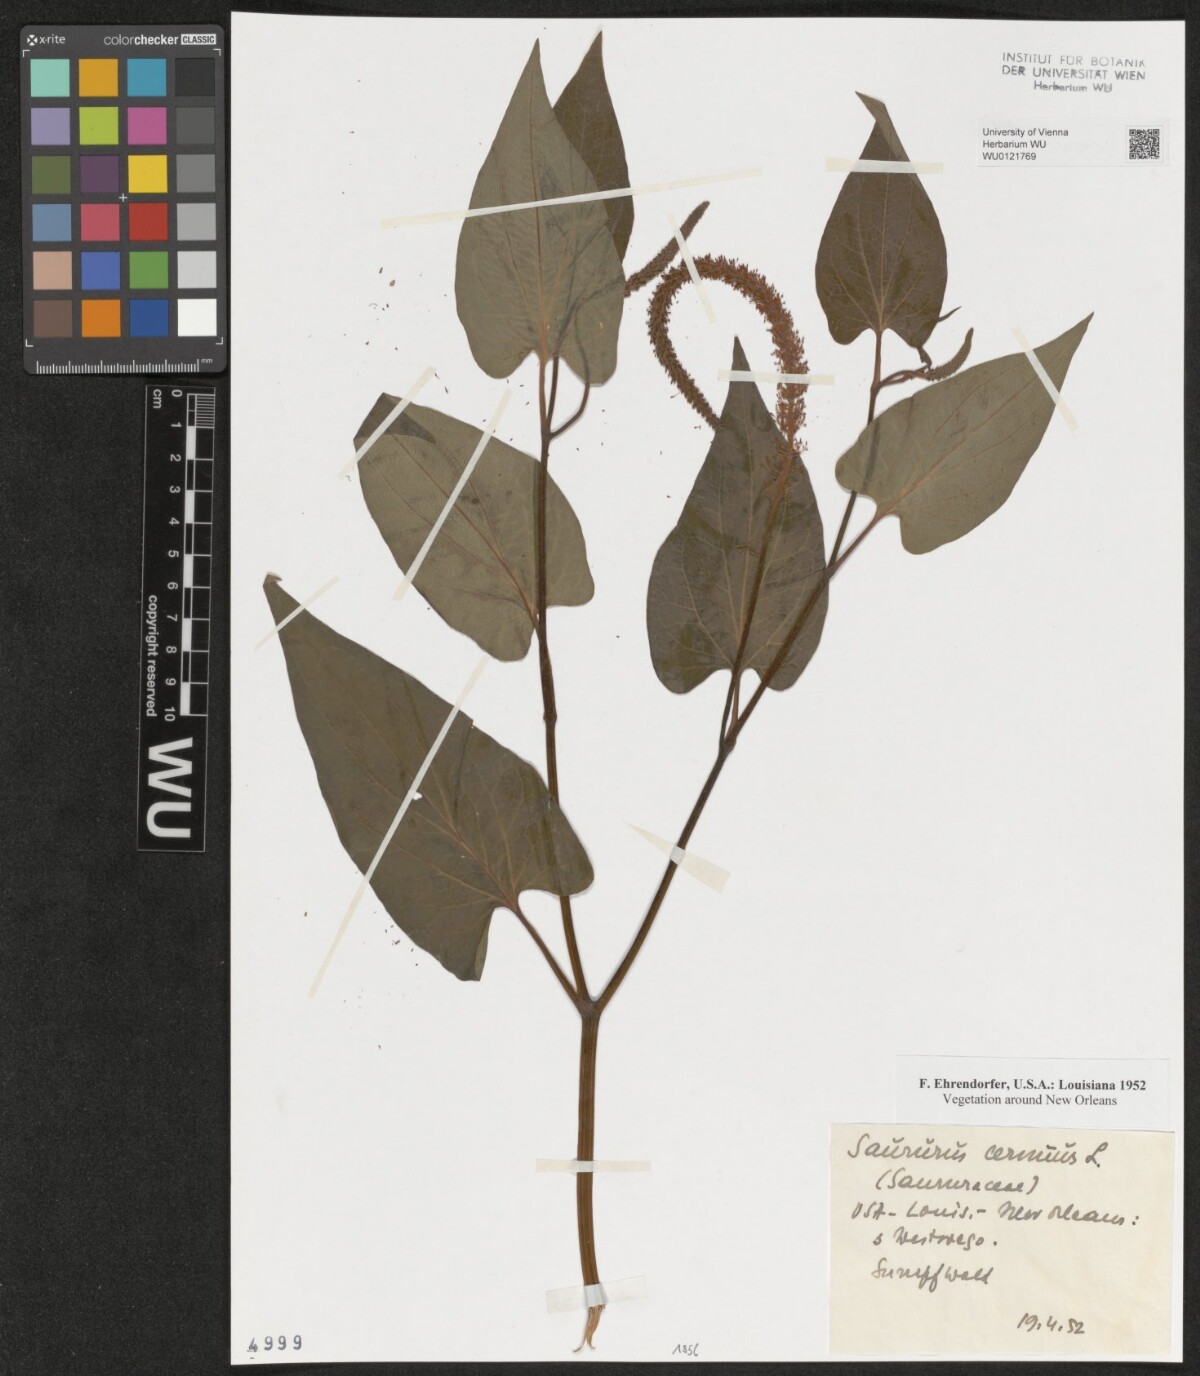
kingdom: Plantae
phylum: Tracheophyta
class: Magnoliopsida
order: Piperales
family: Saururaceae
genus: Saururus
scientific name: Saururus cernuus
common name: Lizard's-tail
